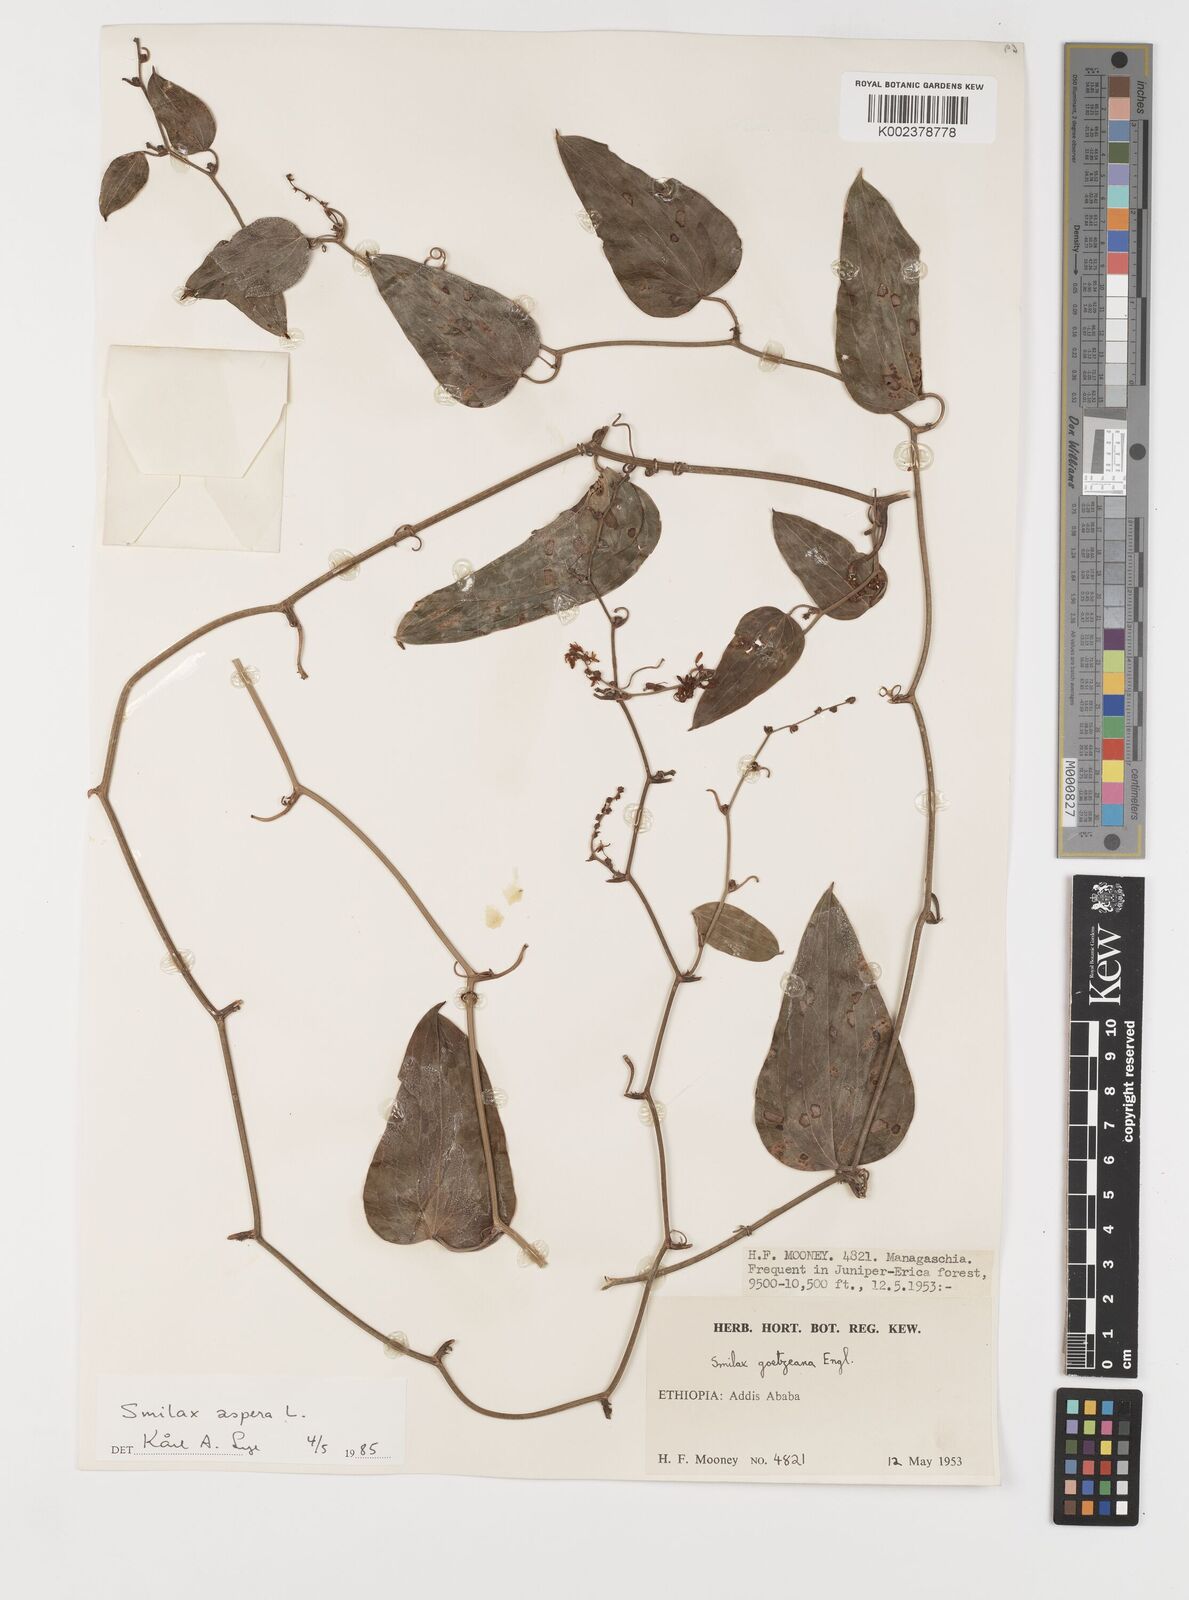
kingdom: Plantae
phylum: Tracheophyta
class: Liliopsida
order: Liliales
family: Smilacaceae
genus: Smilax
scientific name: Smilax aspera
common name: Common smilax
